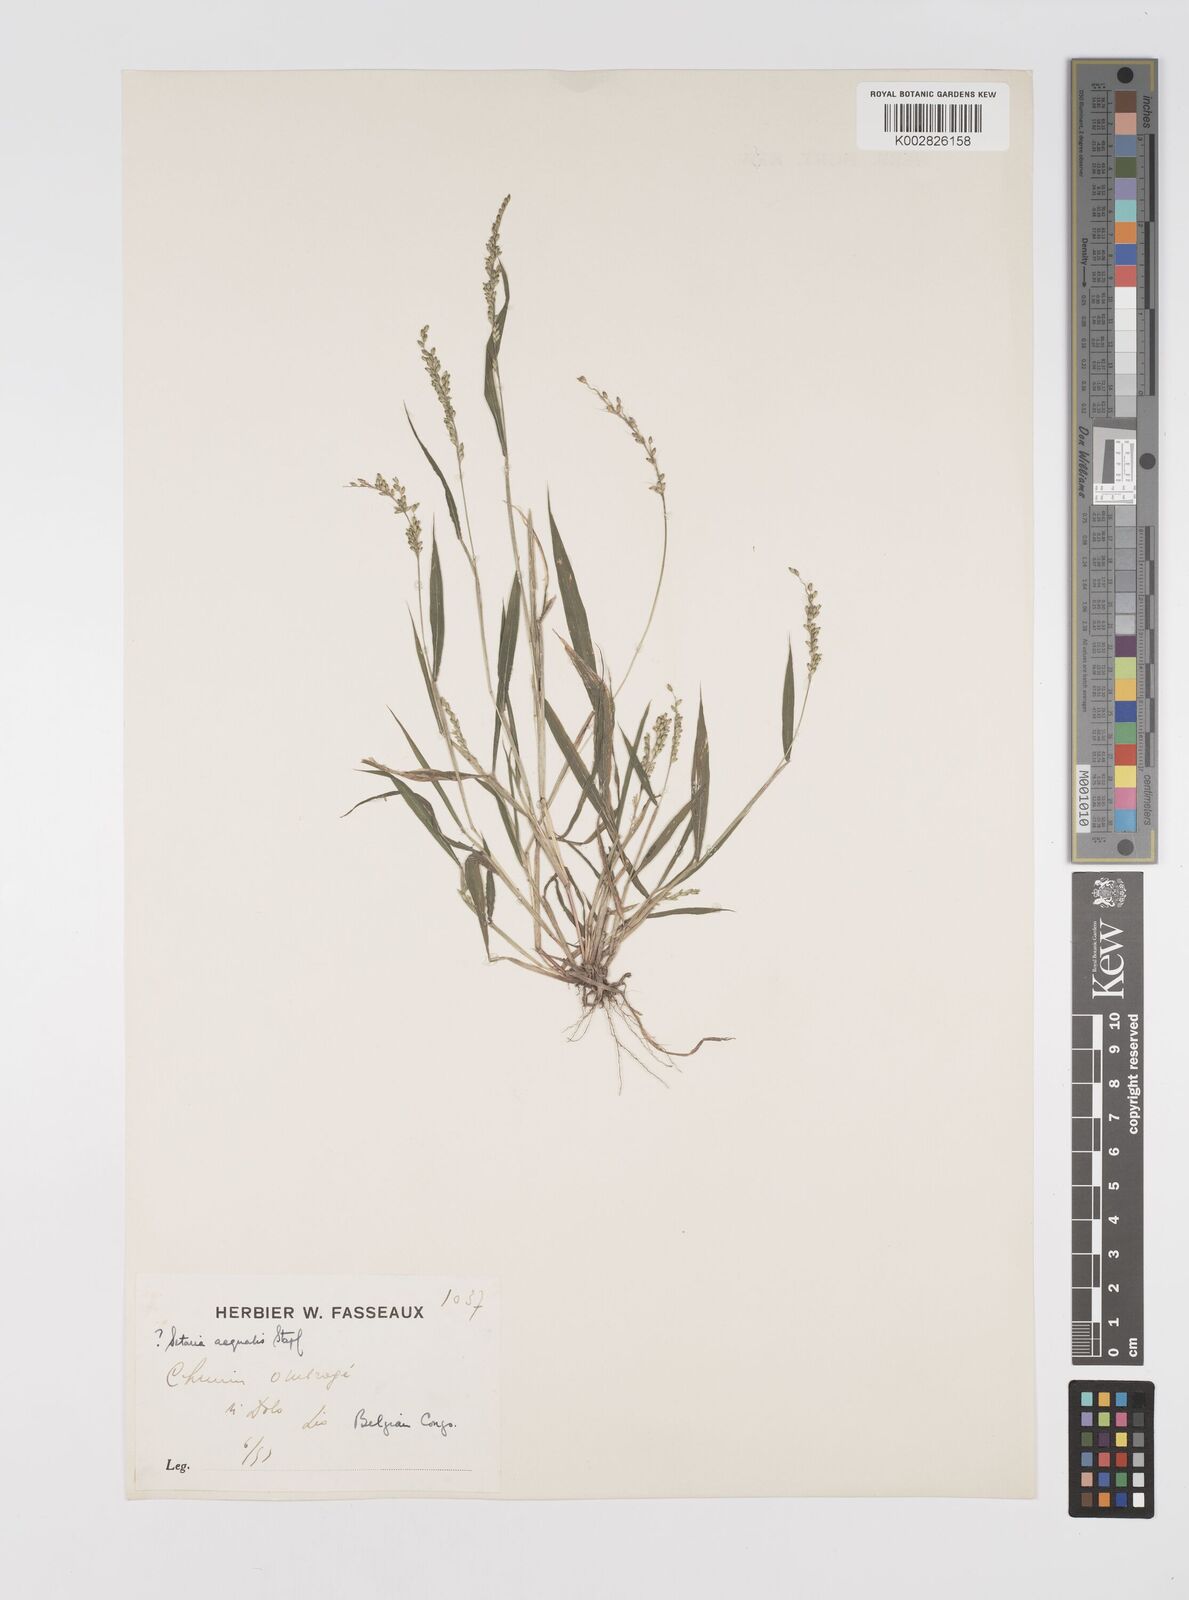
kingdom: Plantae
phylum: Tracheophyta
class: Liliopsida
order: Poales
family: Poaceae
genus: Setaria
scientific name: Setaria barbata
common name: East indian bristlegrass
